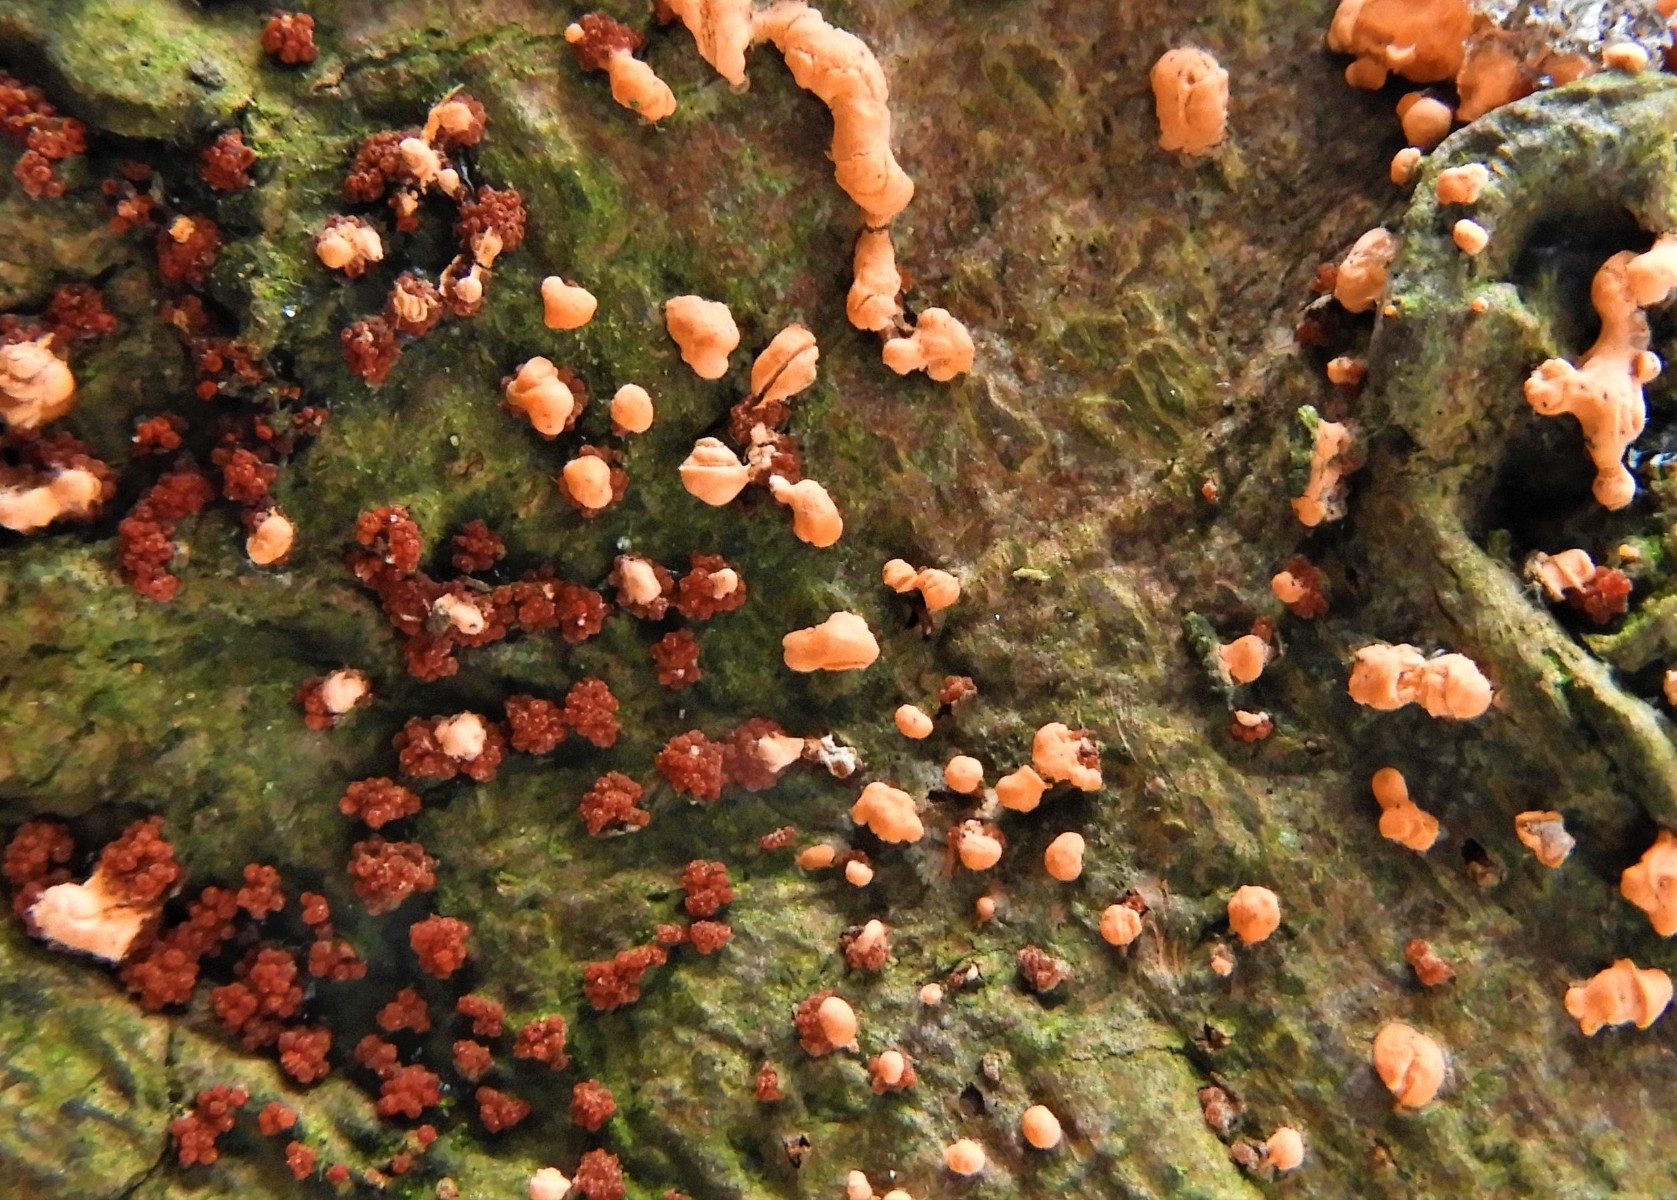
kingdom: Fungi
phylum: Ascomycota
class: Sordariomycetes
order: Hypocreales
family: Nectriaceae
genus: Nectria
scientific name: Nectria cinnabarina
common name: almindelig cinnobersvamp
